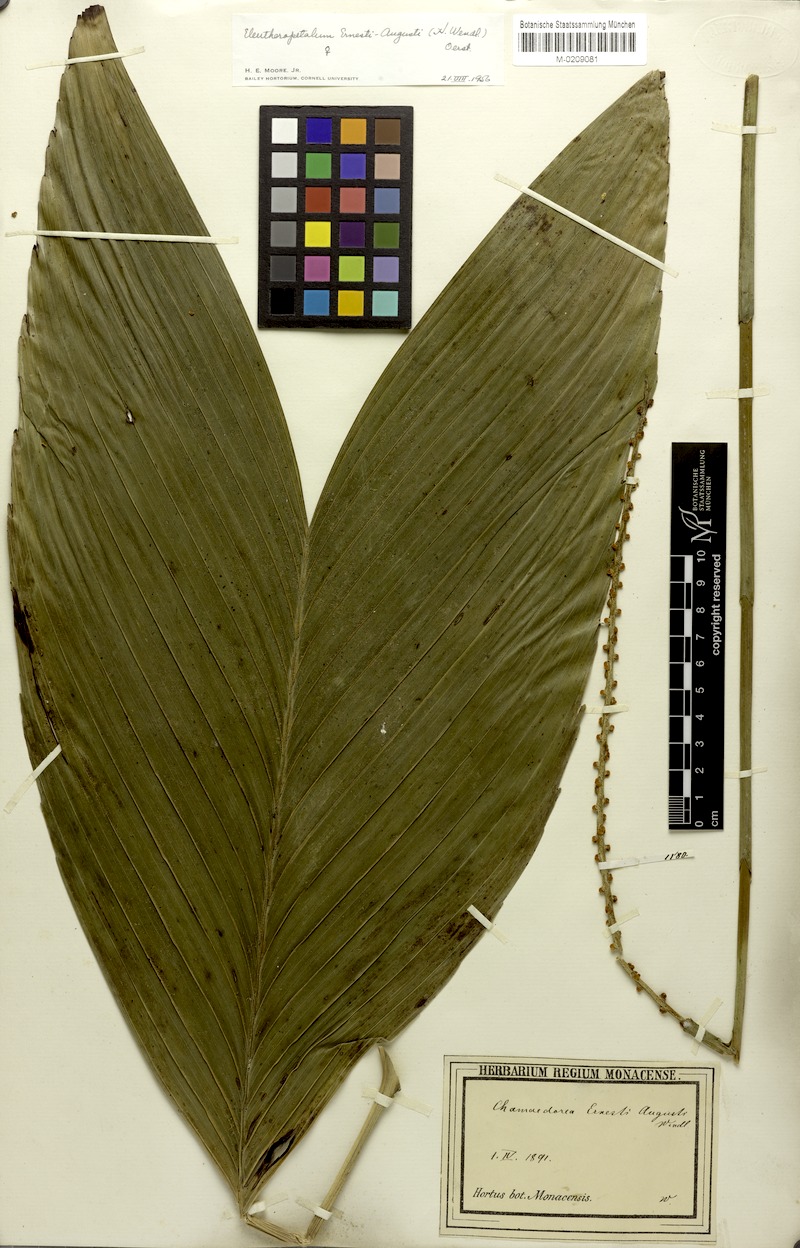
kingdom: Plantae
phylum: Tracheophyta
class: Liliopsida
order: Arecales
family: Arecaceae
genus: Chamaedorea
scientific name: Chamaedorea ernesti-augusti
